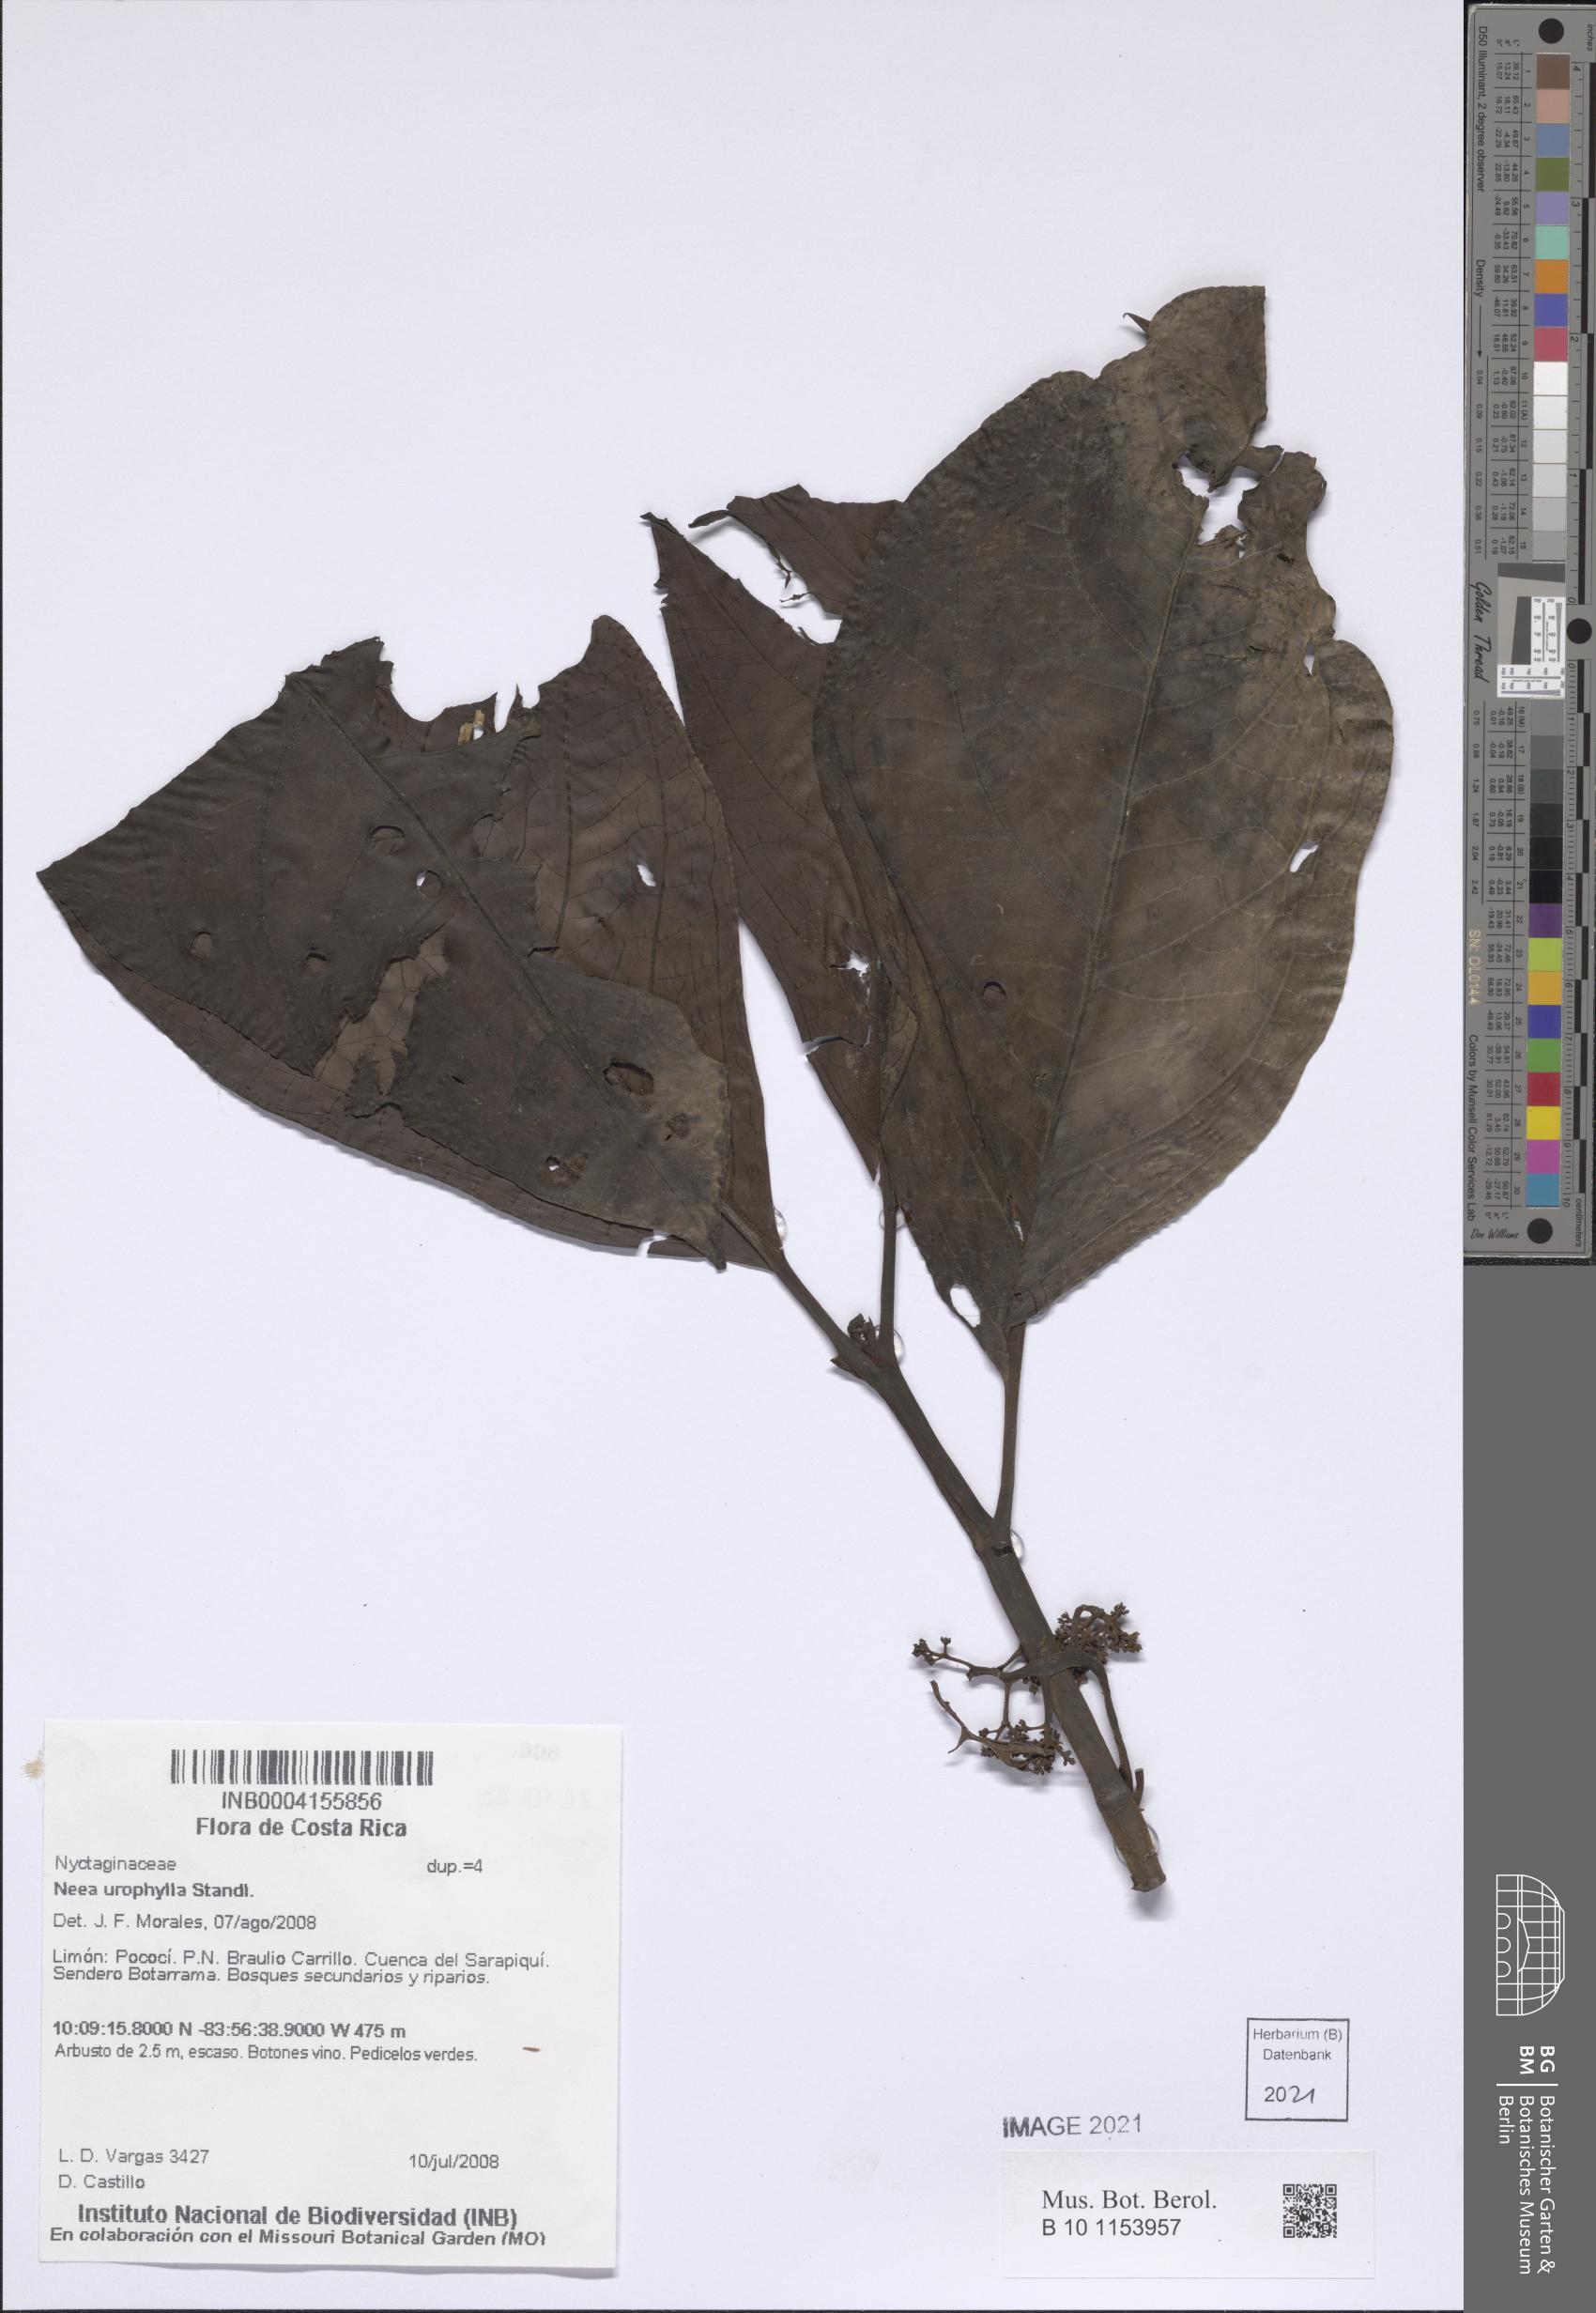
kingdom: Plantae
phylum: Tracheophyta
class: Magnoliopsida
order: Caryophyllales
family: Nyctaginaceae
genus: Neea
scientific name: Neea amplifolia
